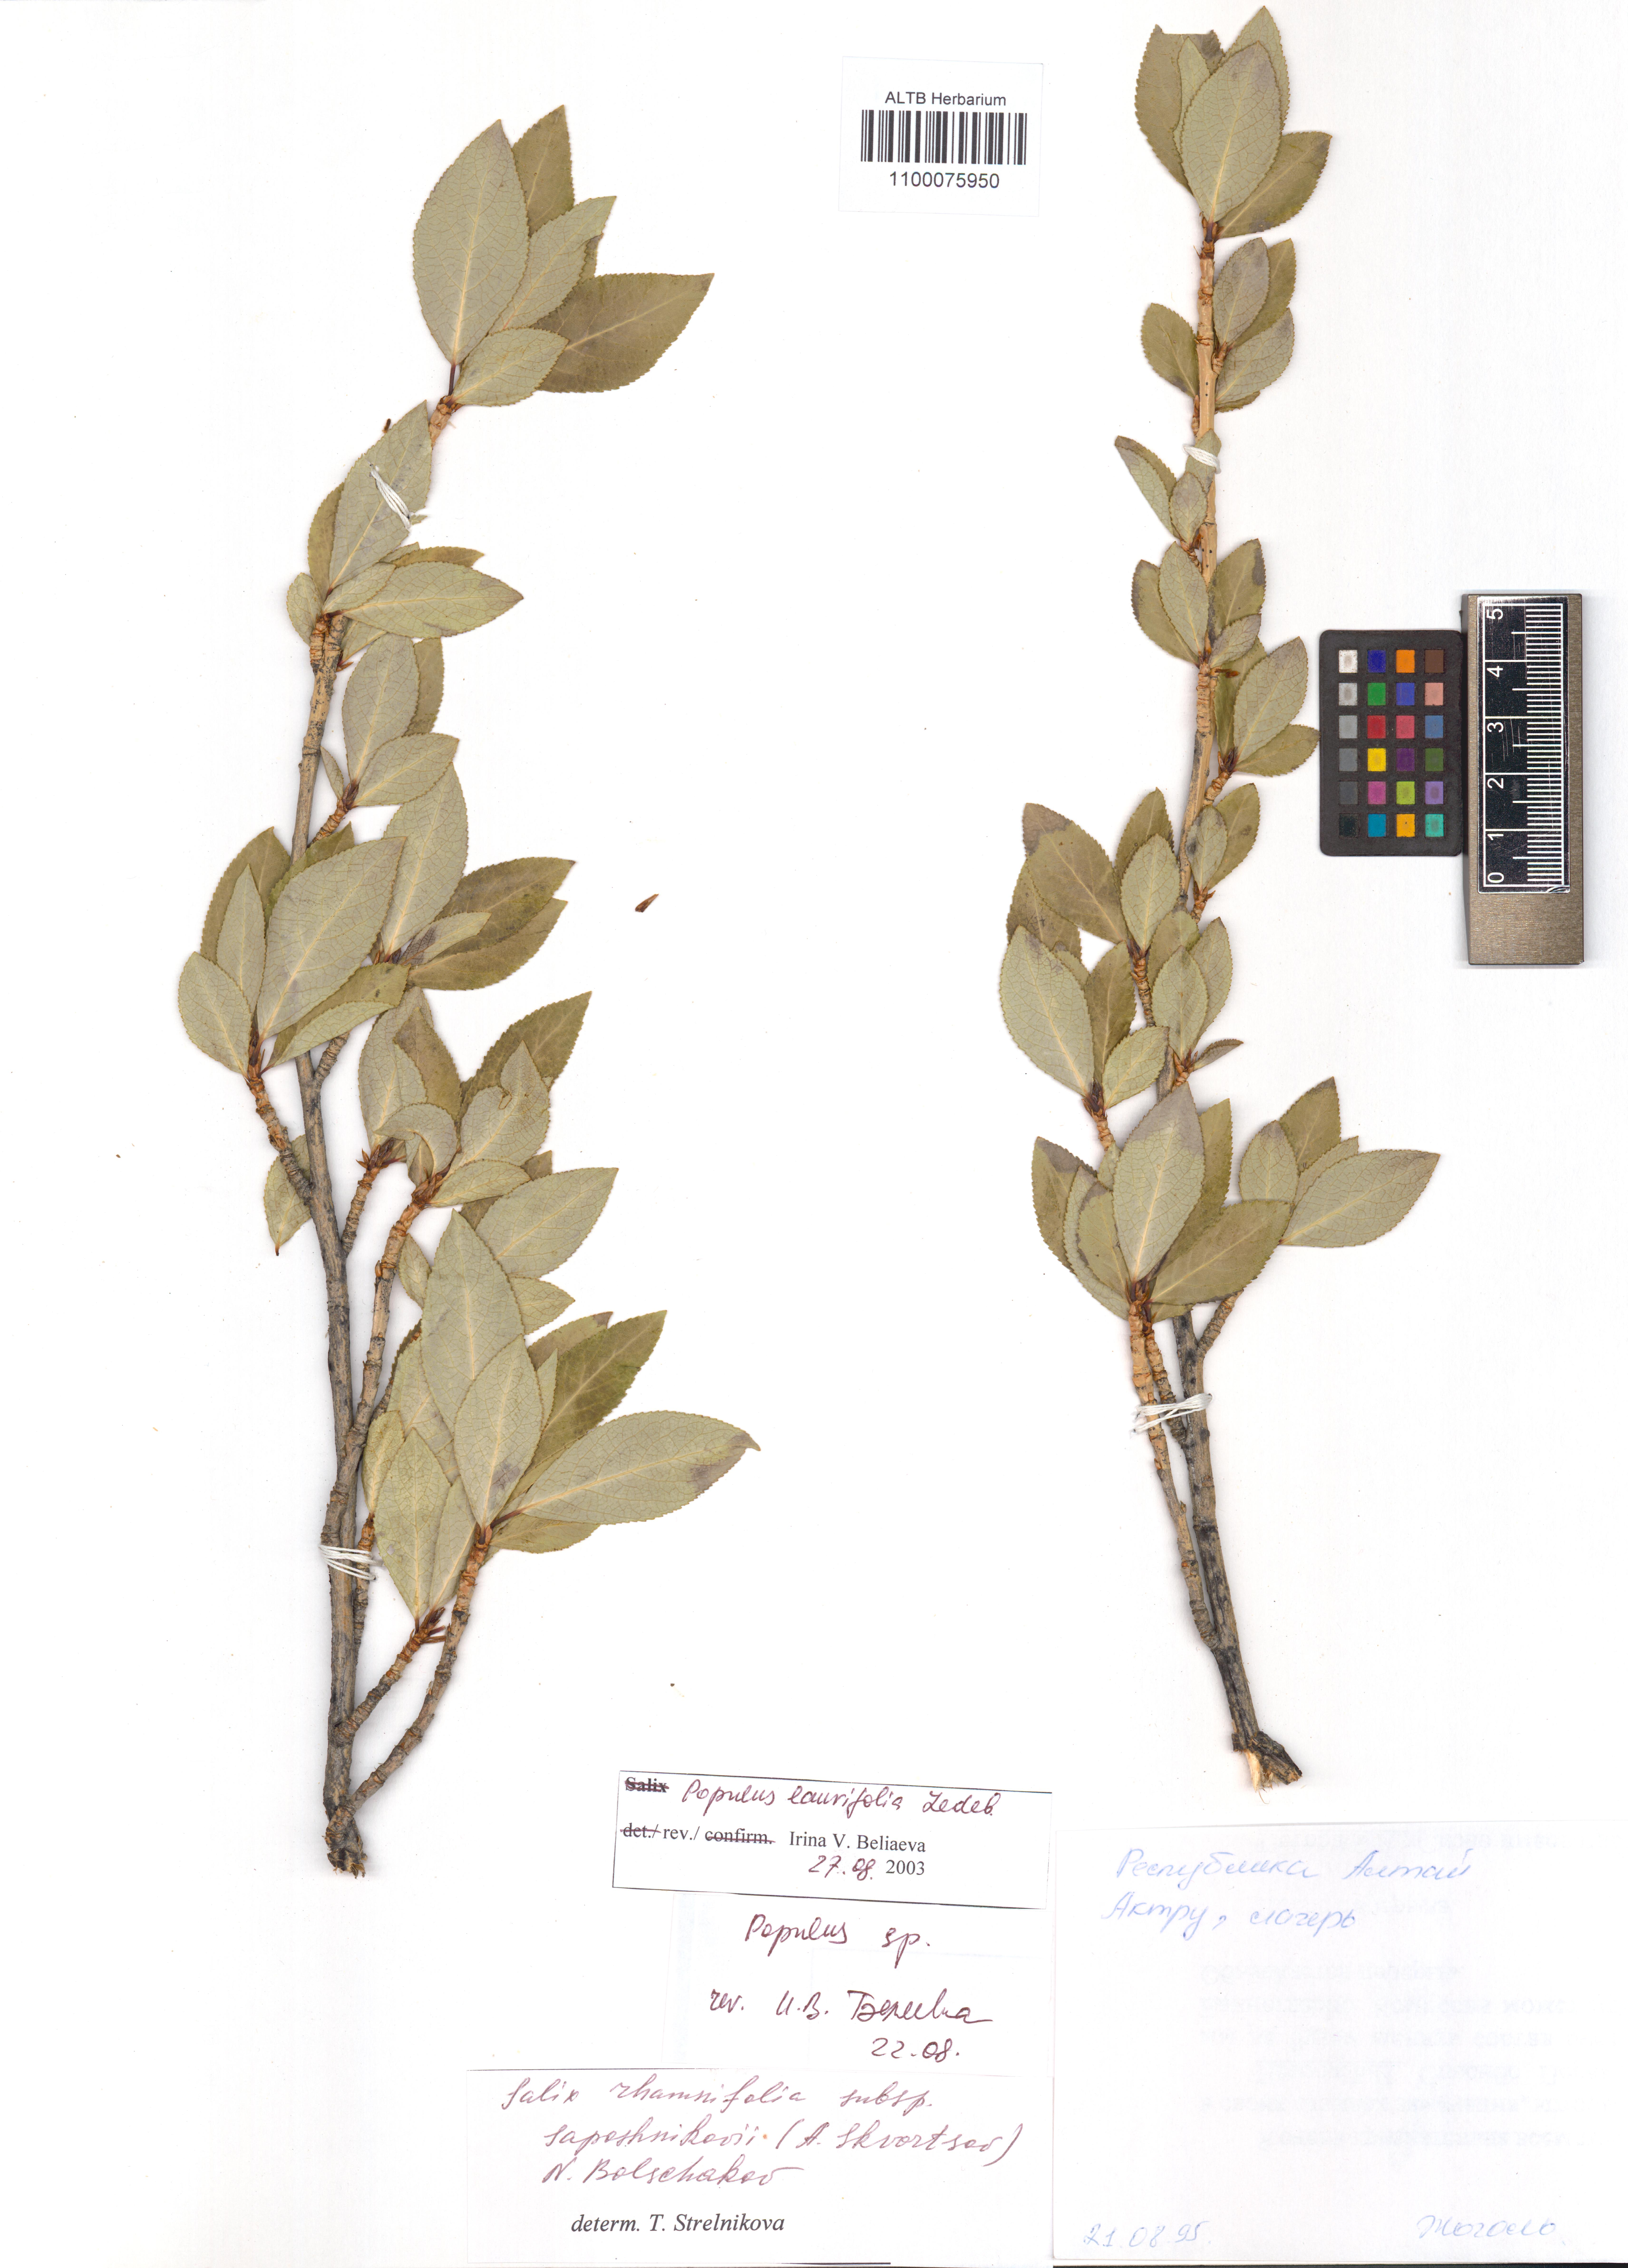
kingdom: Plantae
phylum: Tracheophyta
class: Magnoliopsida
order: Malpighiales
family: Salicaceae
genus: Populus
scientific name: Populus laurifolia
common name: Laurel-leaf poplar
